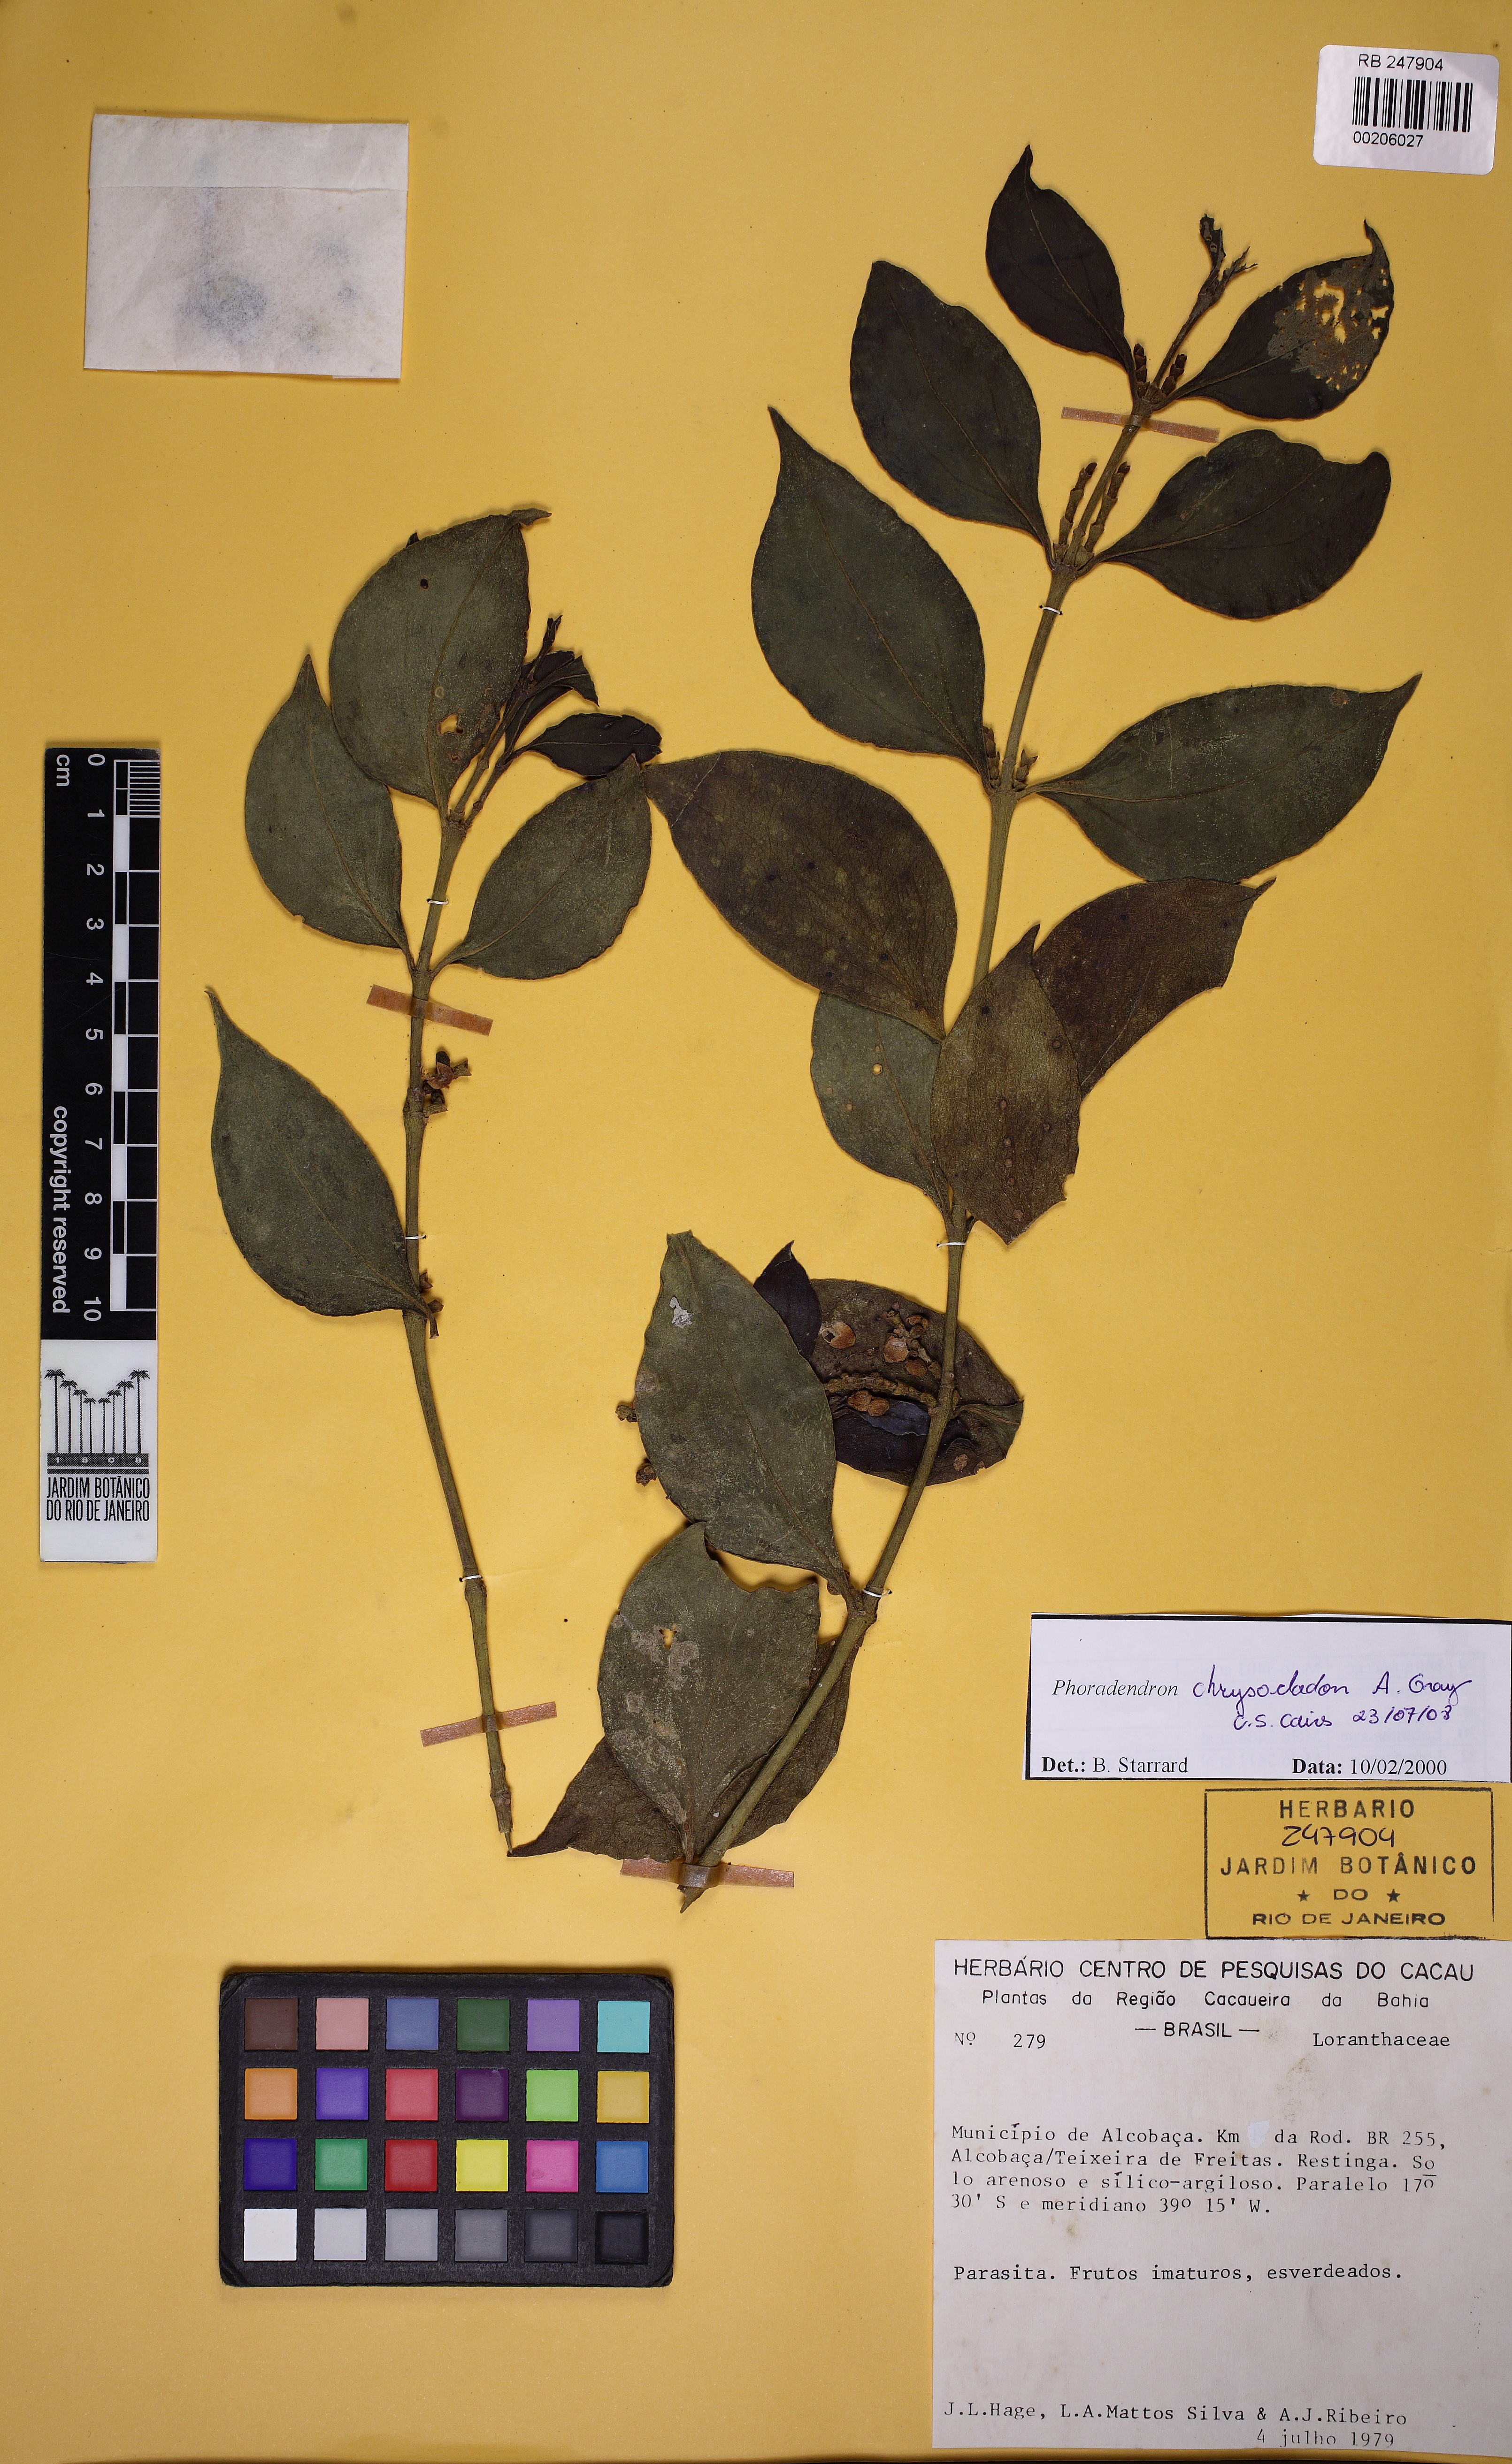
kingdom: Plantae
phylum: Tracheophyta
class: Magnoliopsida
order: Santalales
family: Viscaceae
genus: Phoradendron
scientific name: Phoradendron chrysocladon
